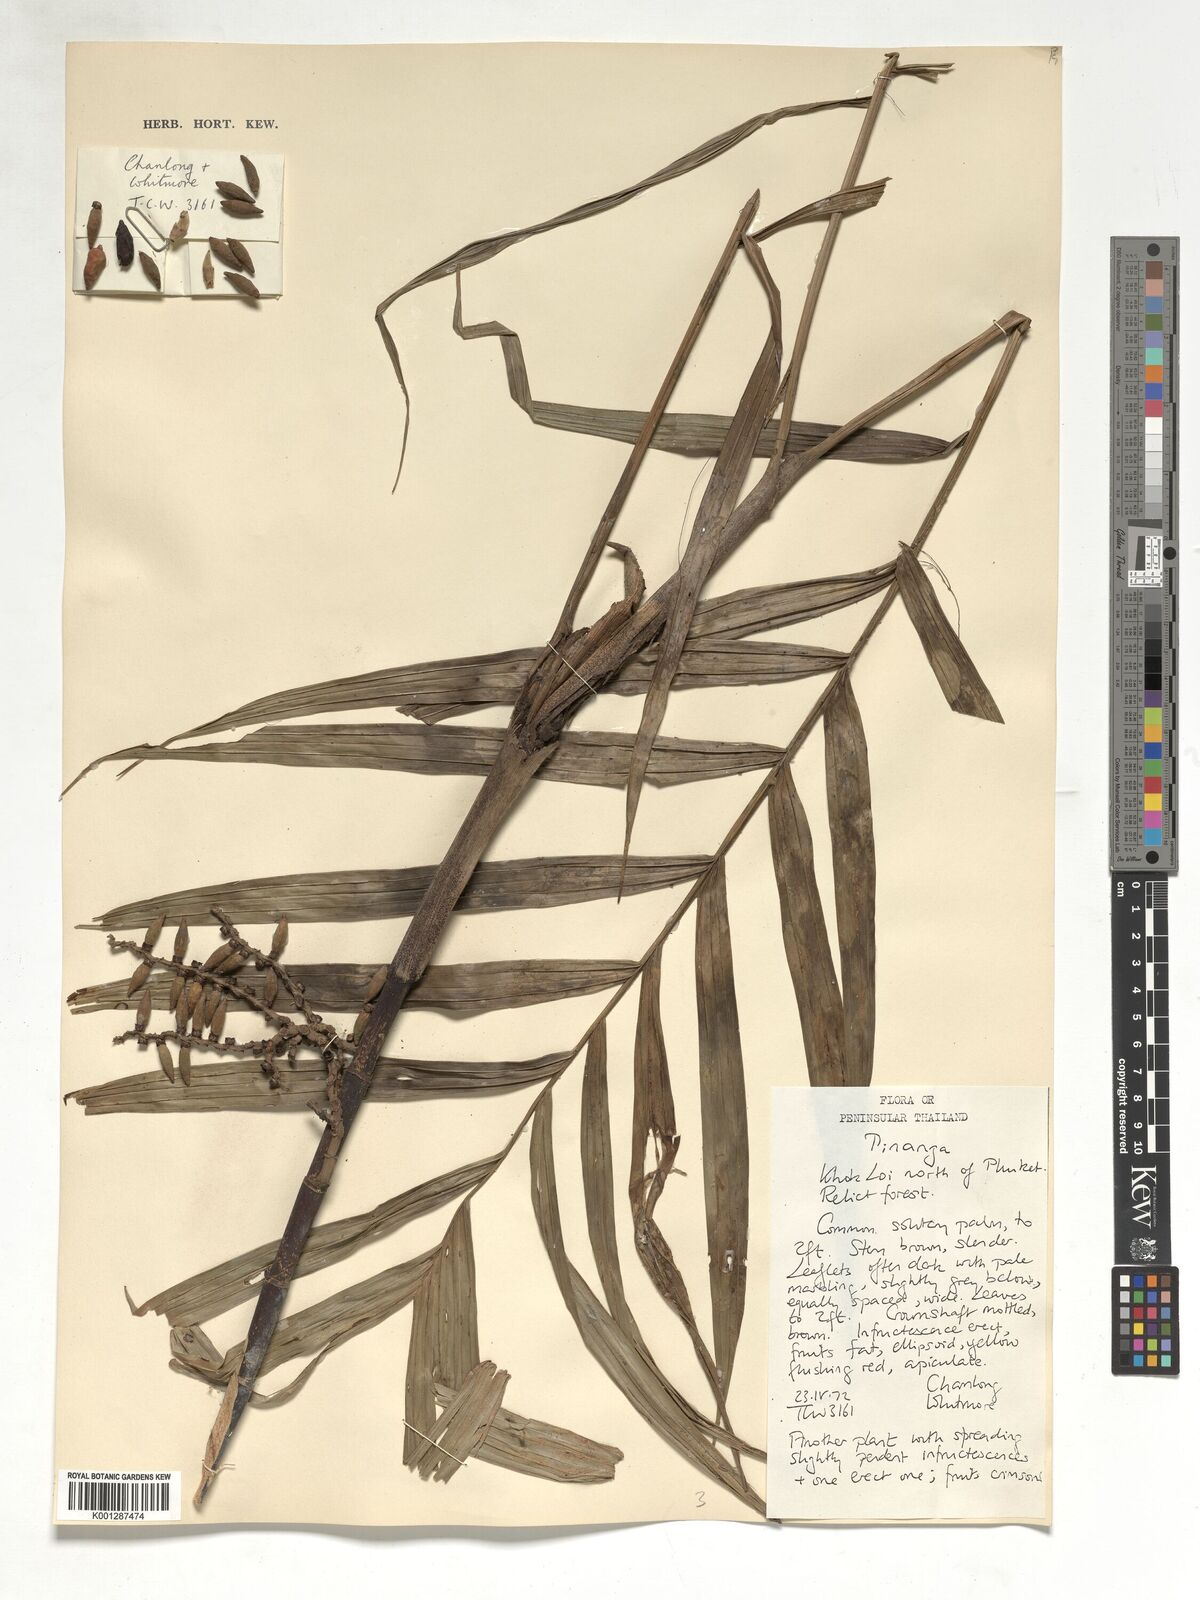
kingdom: Plantae
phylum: Tracheophyta
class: Liliopsida
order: Arecales
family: Arecaceae
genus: Pinanga
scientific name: Pinanga
